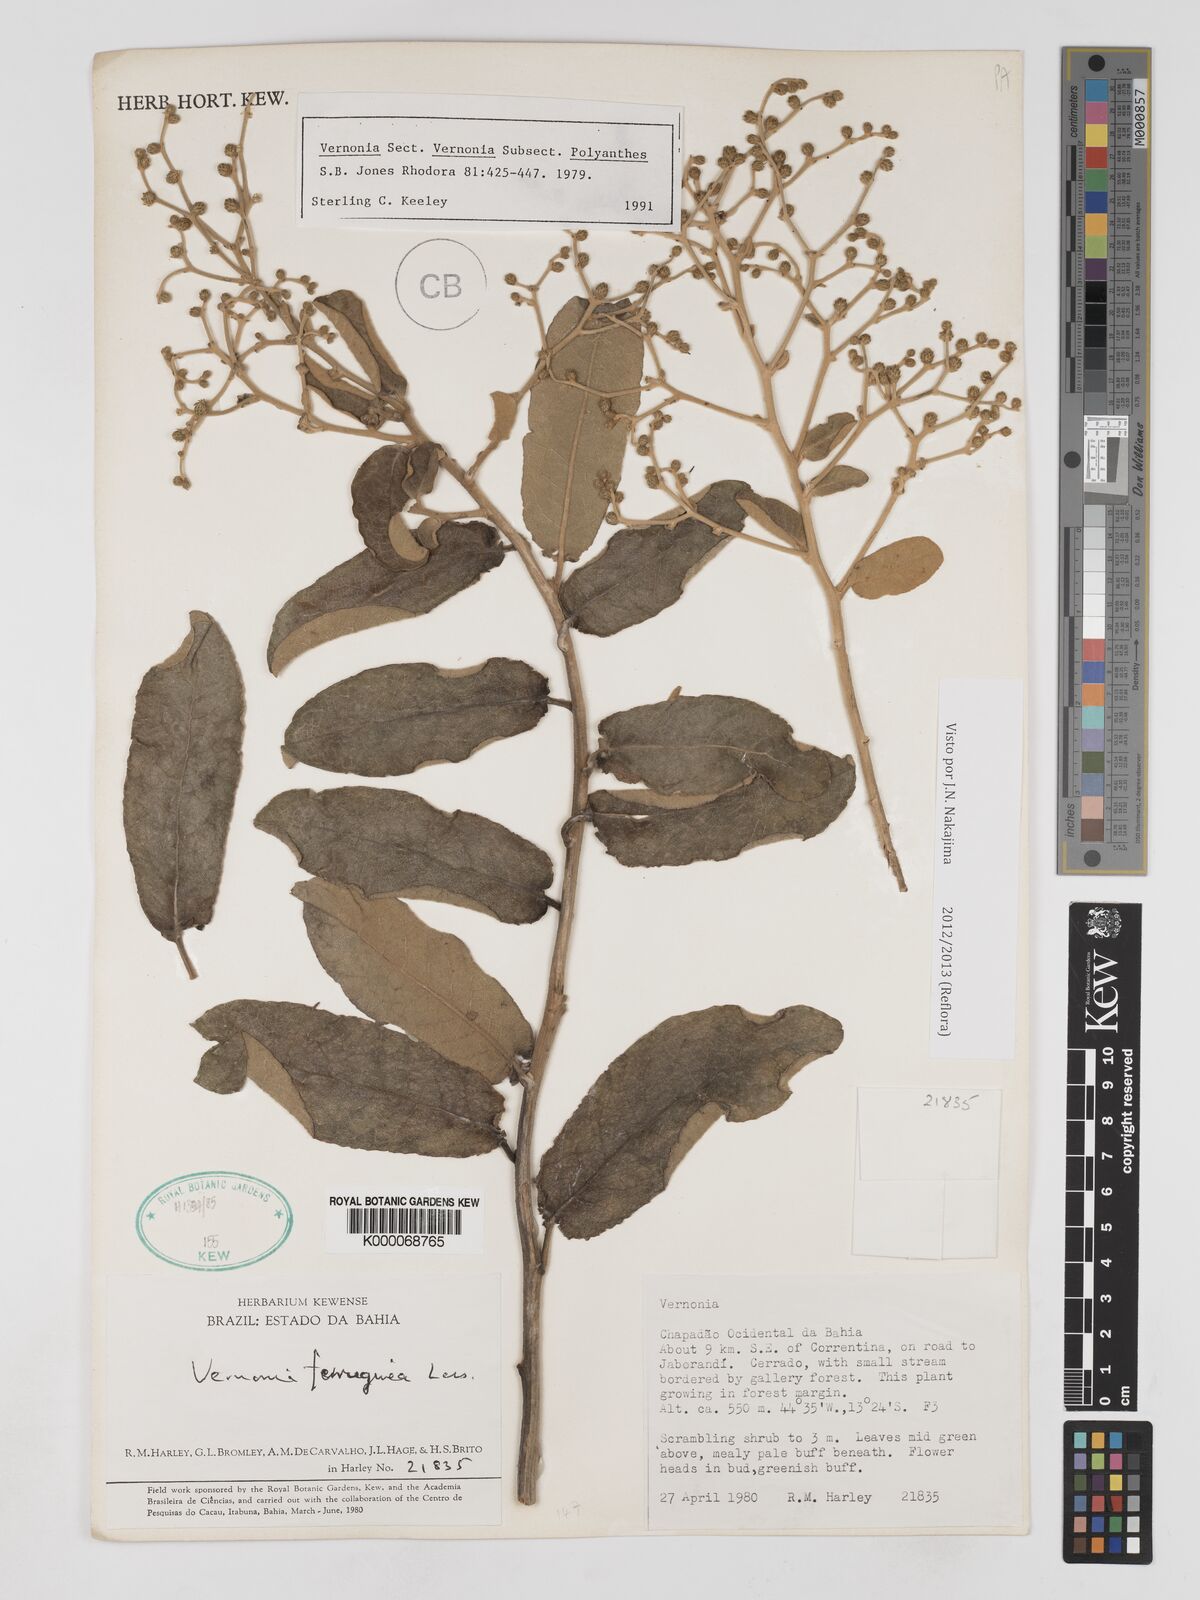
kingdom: Plantae
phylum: Tracheophyta
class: Magnoliopsida
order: Asterales
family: Asteraceae
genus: Vernonanthura
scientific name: Vernonanthura ferruginea
